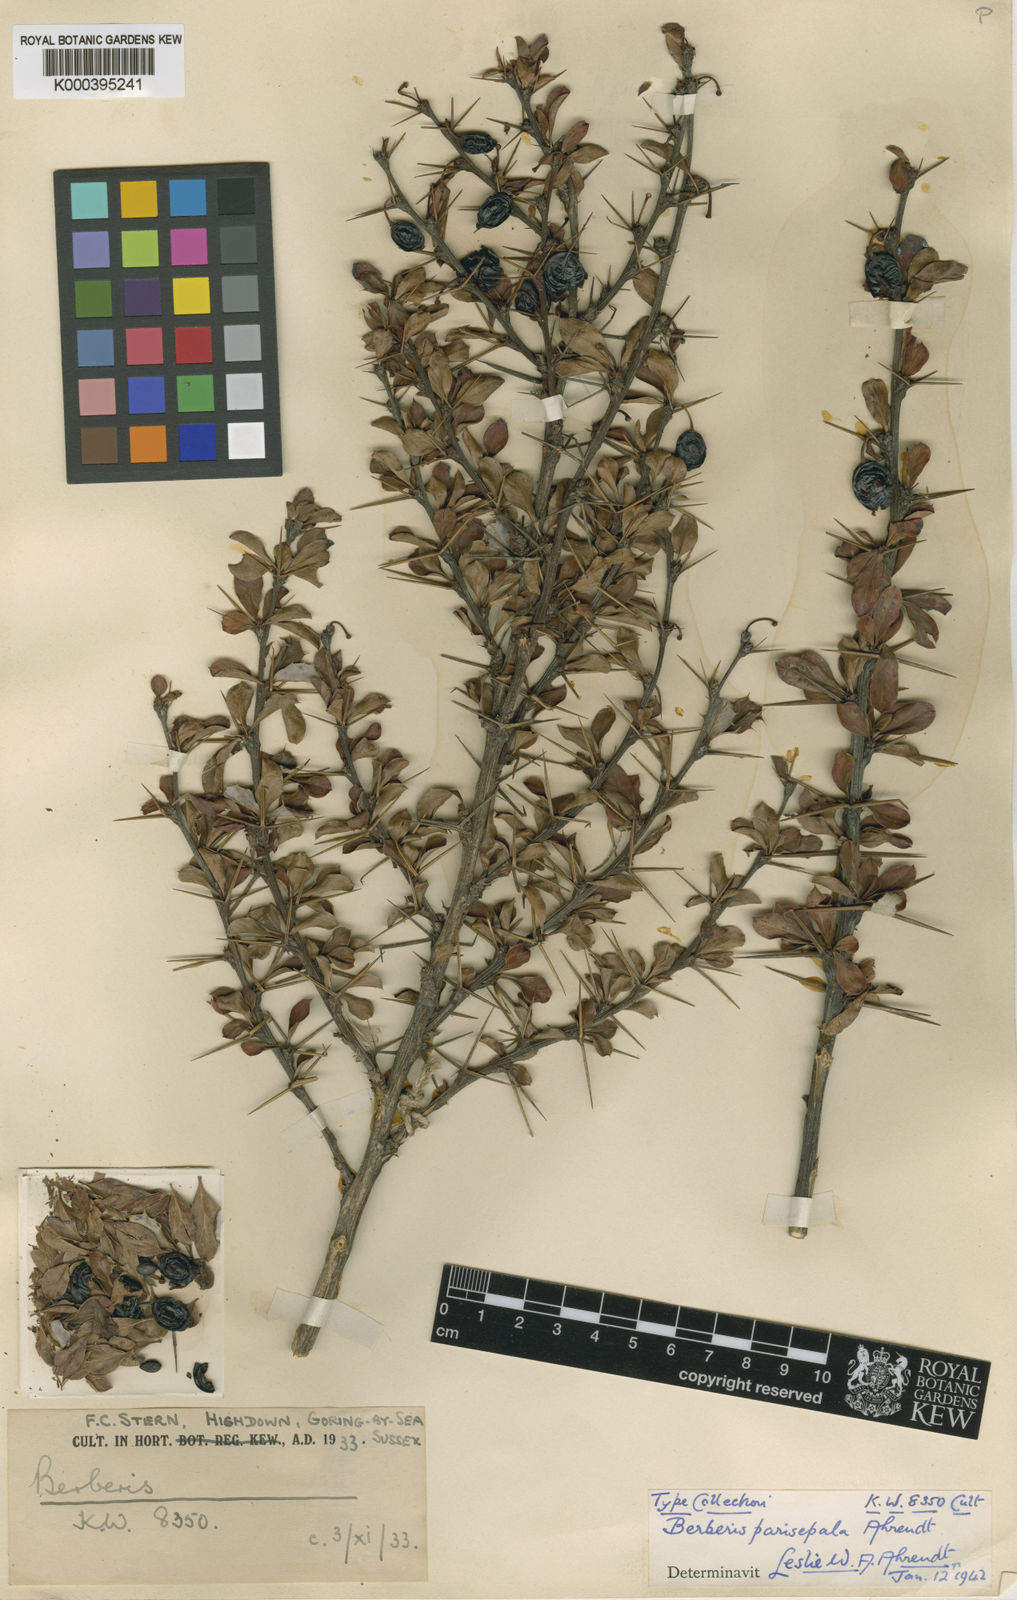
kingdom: Plantae
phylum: Tracheophyta
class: Magnoliopsida
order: Ranunculales
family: Berberidaceae
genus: Berberis
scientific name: Berberis angulosa
